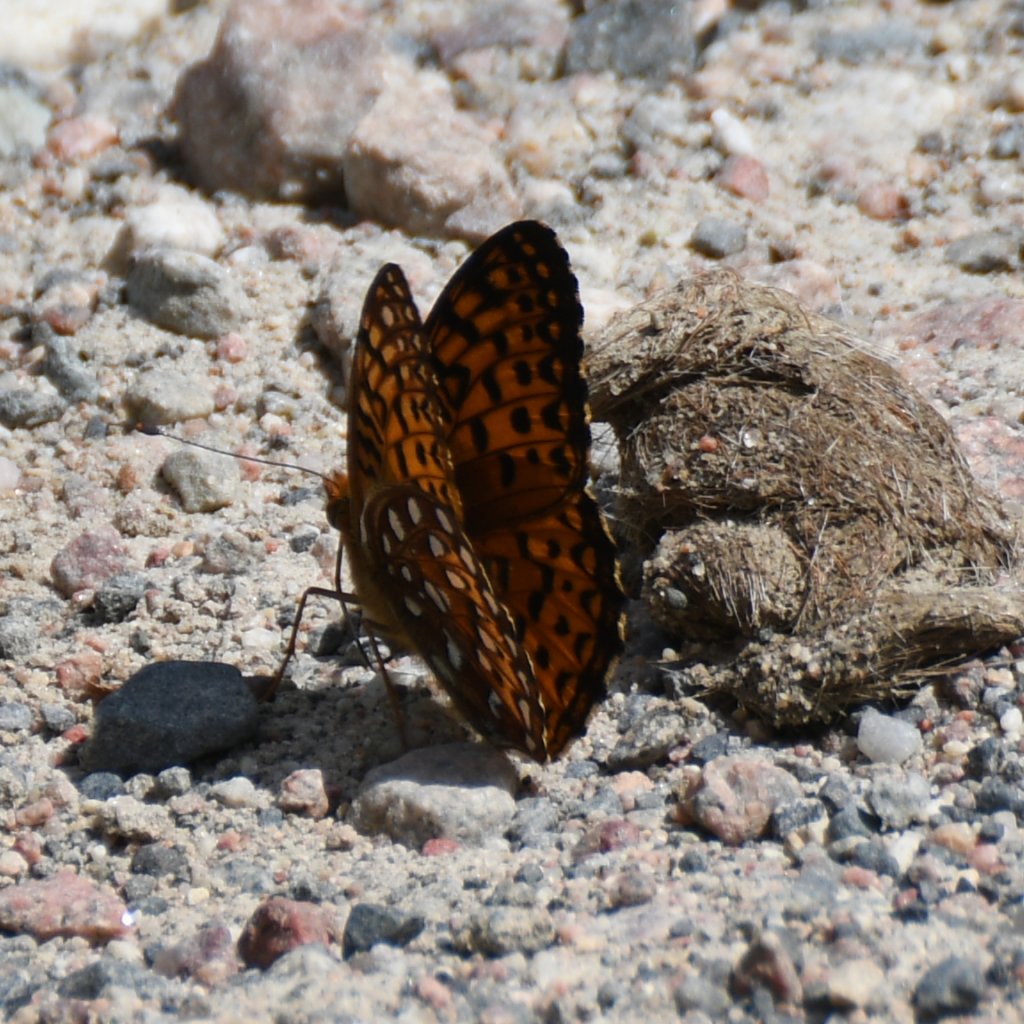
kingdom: Animalia
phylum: Arthropoda
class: Insecta
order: Lepidoptera
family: Nymphalidae
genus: Speyeria
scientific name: Speyeria aphrodite
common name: Aphrodite Fritillary
